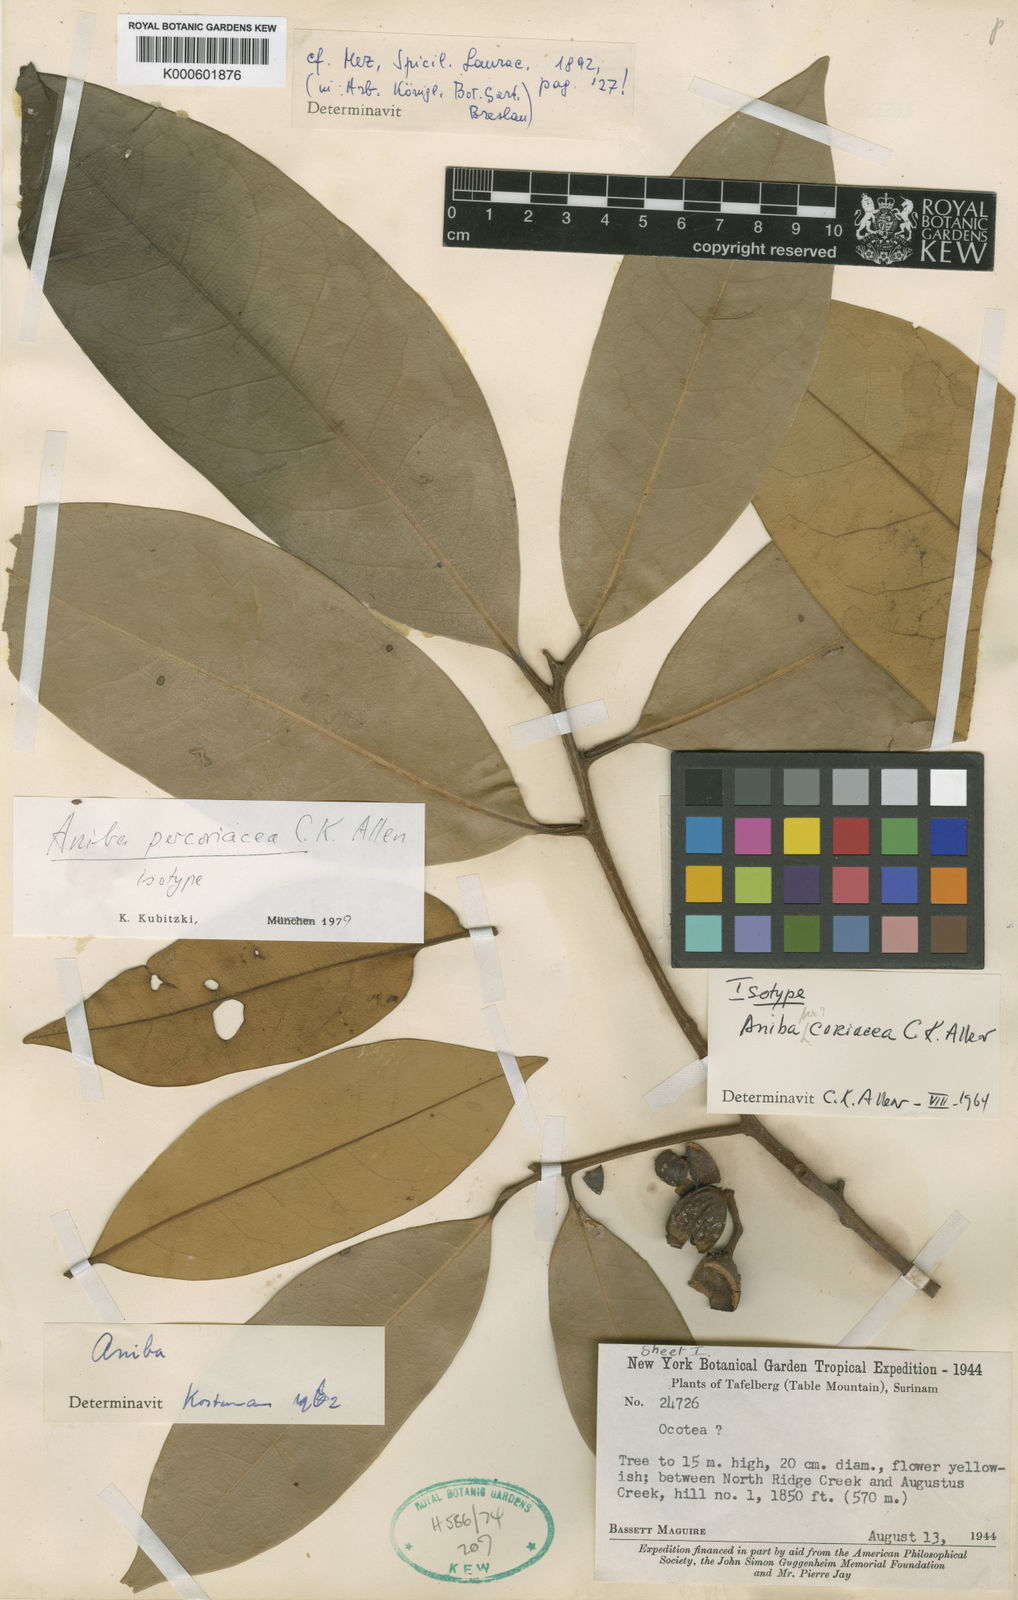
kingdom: Plantae
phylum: Tracheophyta
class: Magnoliopsida
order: Laurales
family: Lauraceae
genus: Aniba
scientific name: Aniba percoriacea
